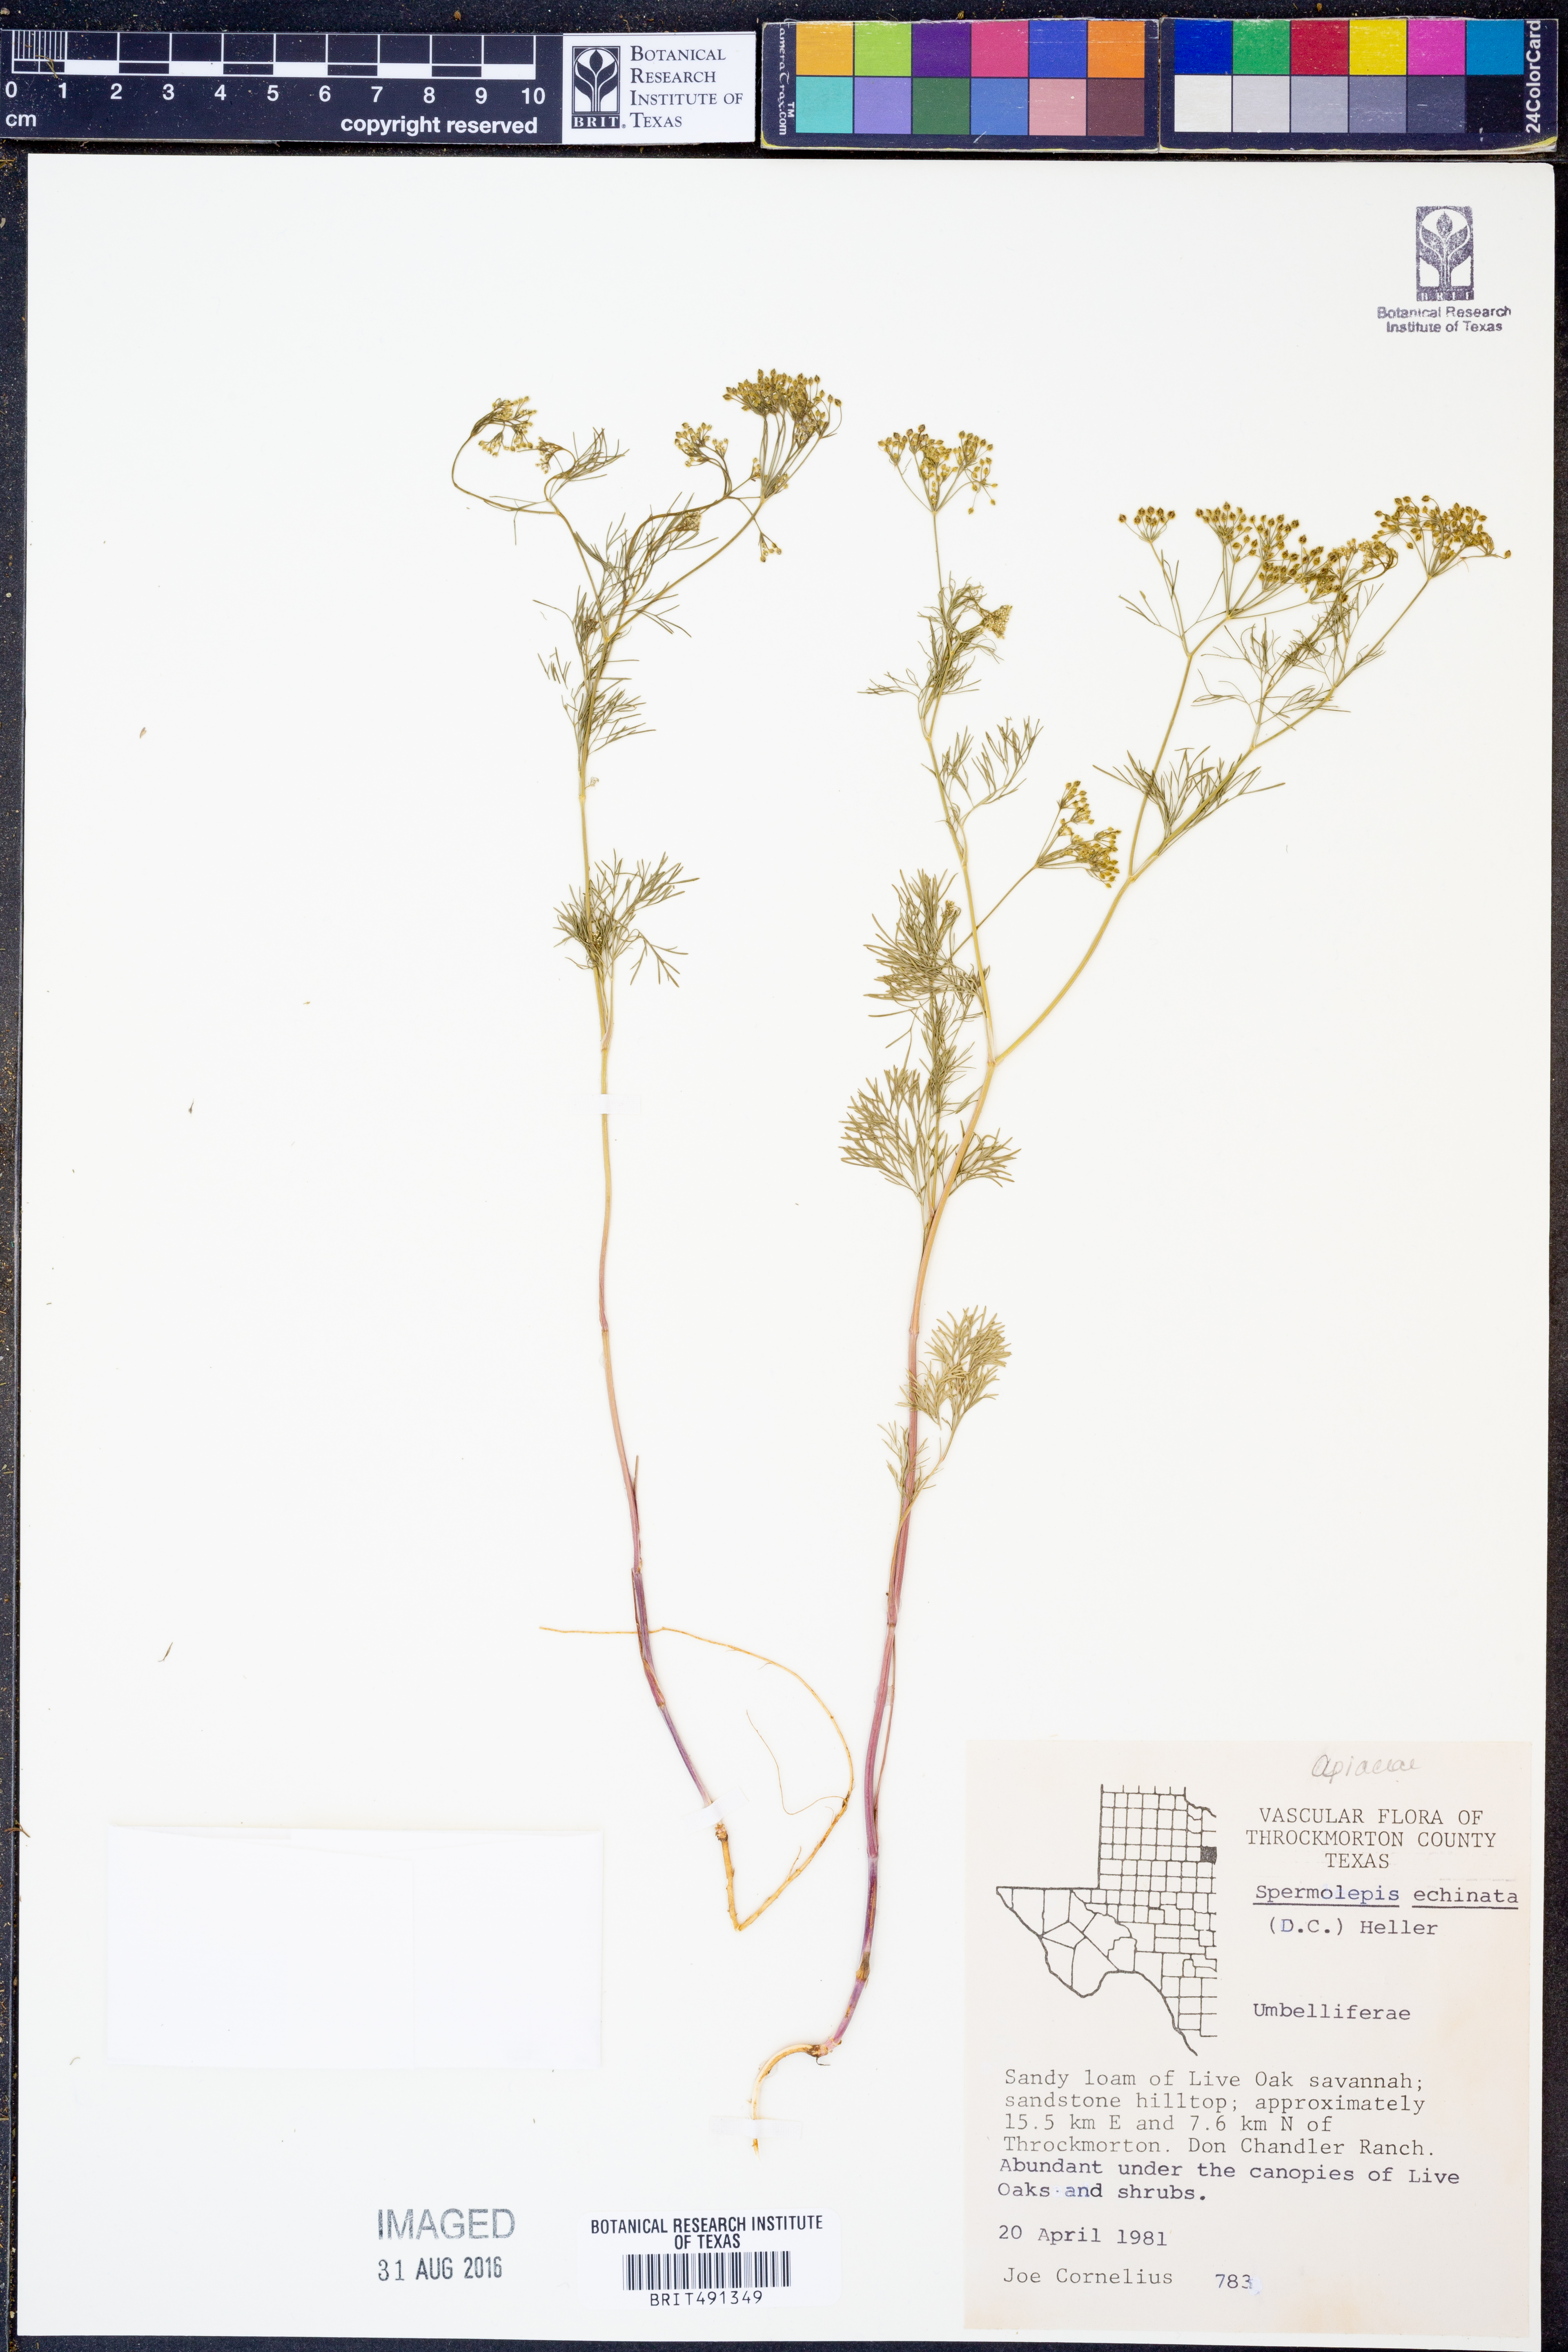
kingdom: Plantae
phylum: Tracheophyta
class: Magnoliopsida
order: Apiales
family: Apiaceae
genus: Spermolepis
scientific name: Spermolepis echinata
